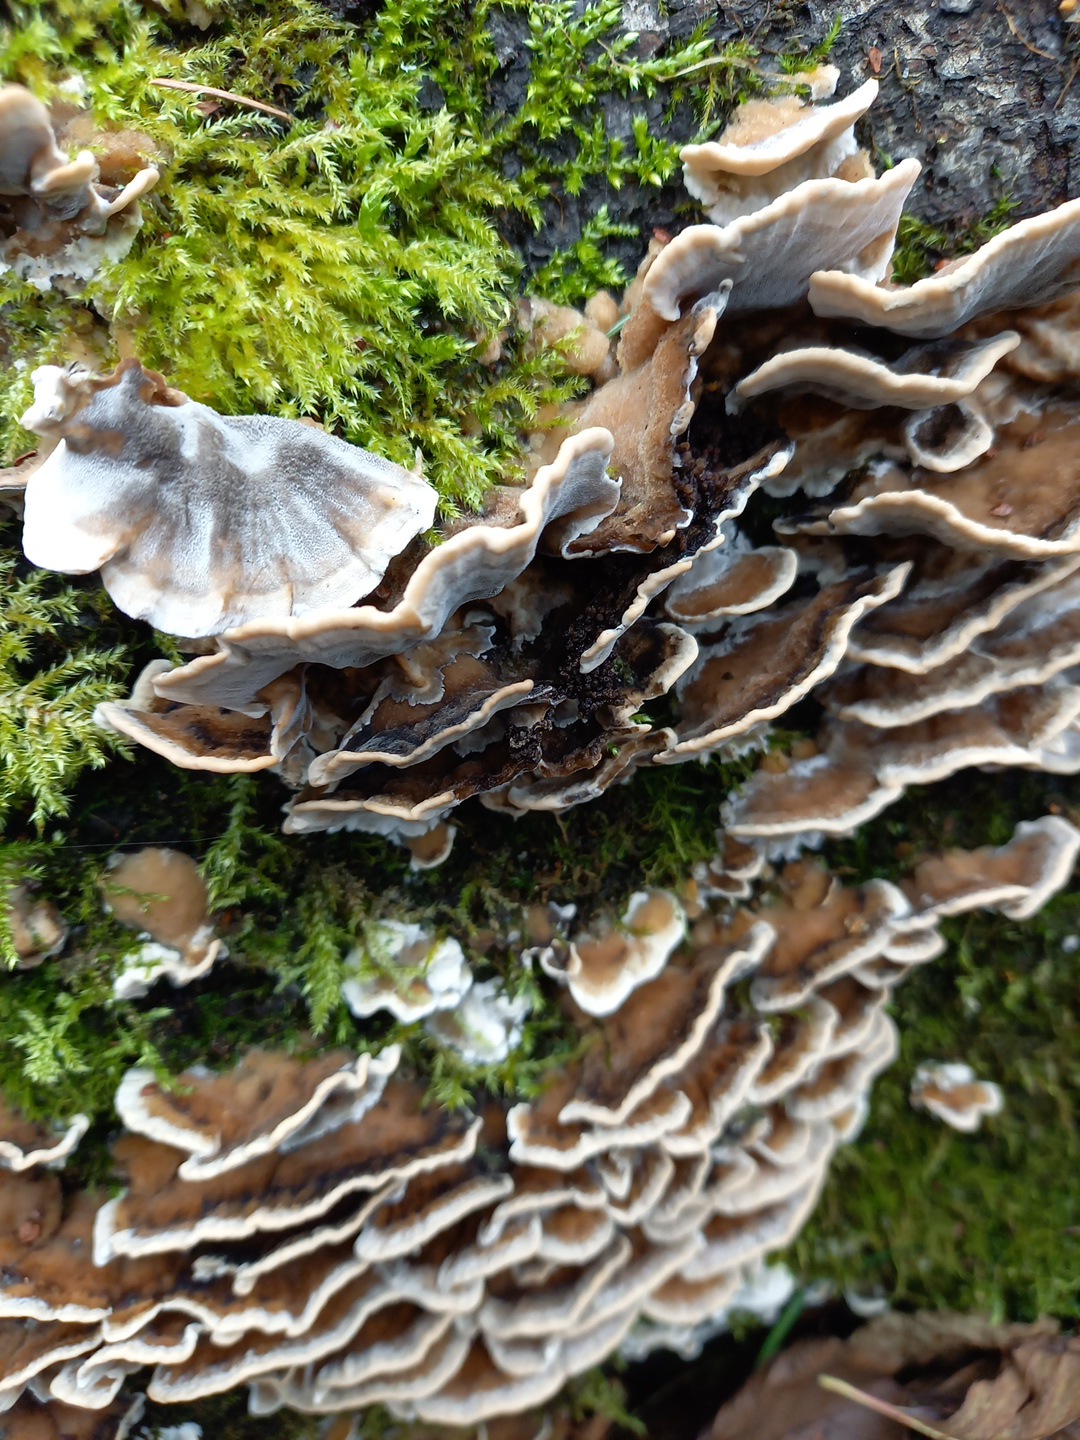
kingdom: Fungi
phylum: Basidiomycota
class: Agaricomycetes
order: Polyporales
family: Phanerochaetaceae
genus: Bjerkandera
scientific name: Bjerkandera adusta
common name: sveden sodporesvamp
